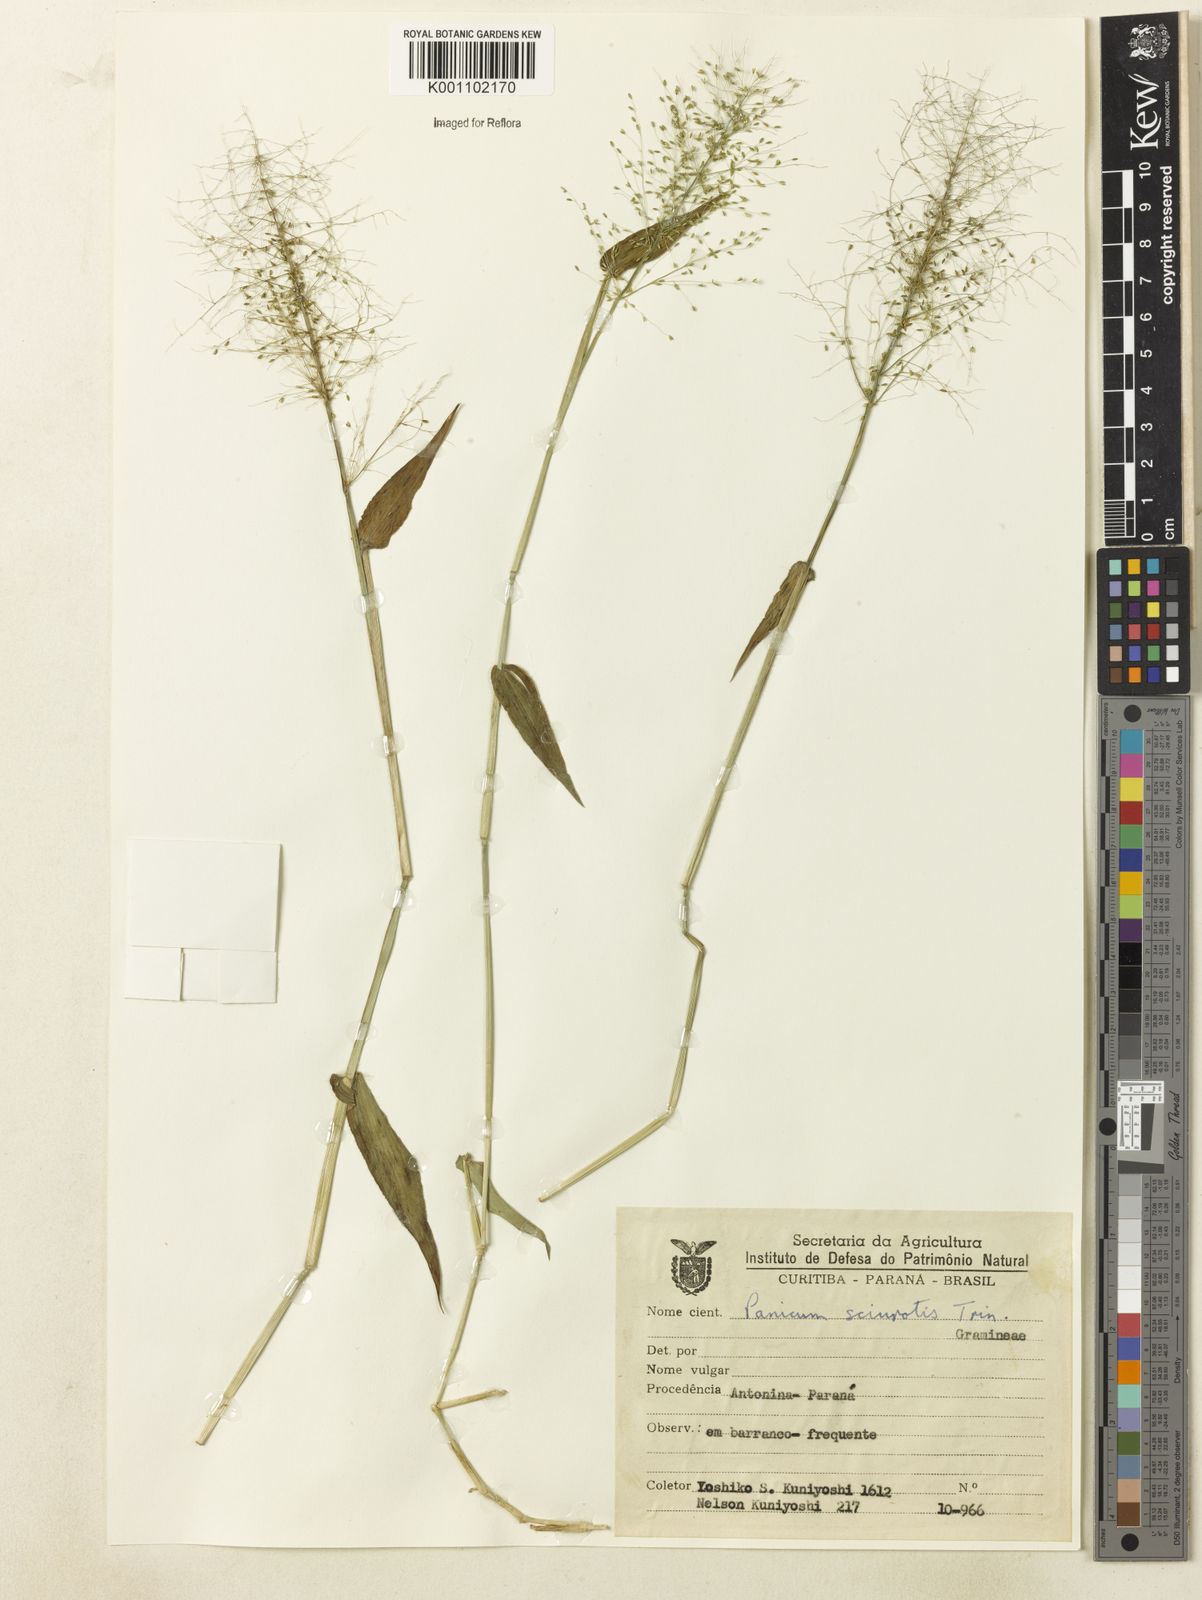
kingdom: Plantae
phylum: Tracheophyta
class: Liliopsida
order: Poales
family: Poaceae
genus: Dichanthelium
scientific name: Dichanthelium sciurotoides
